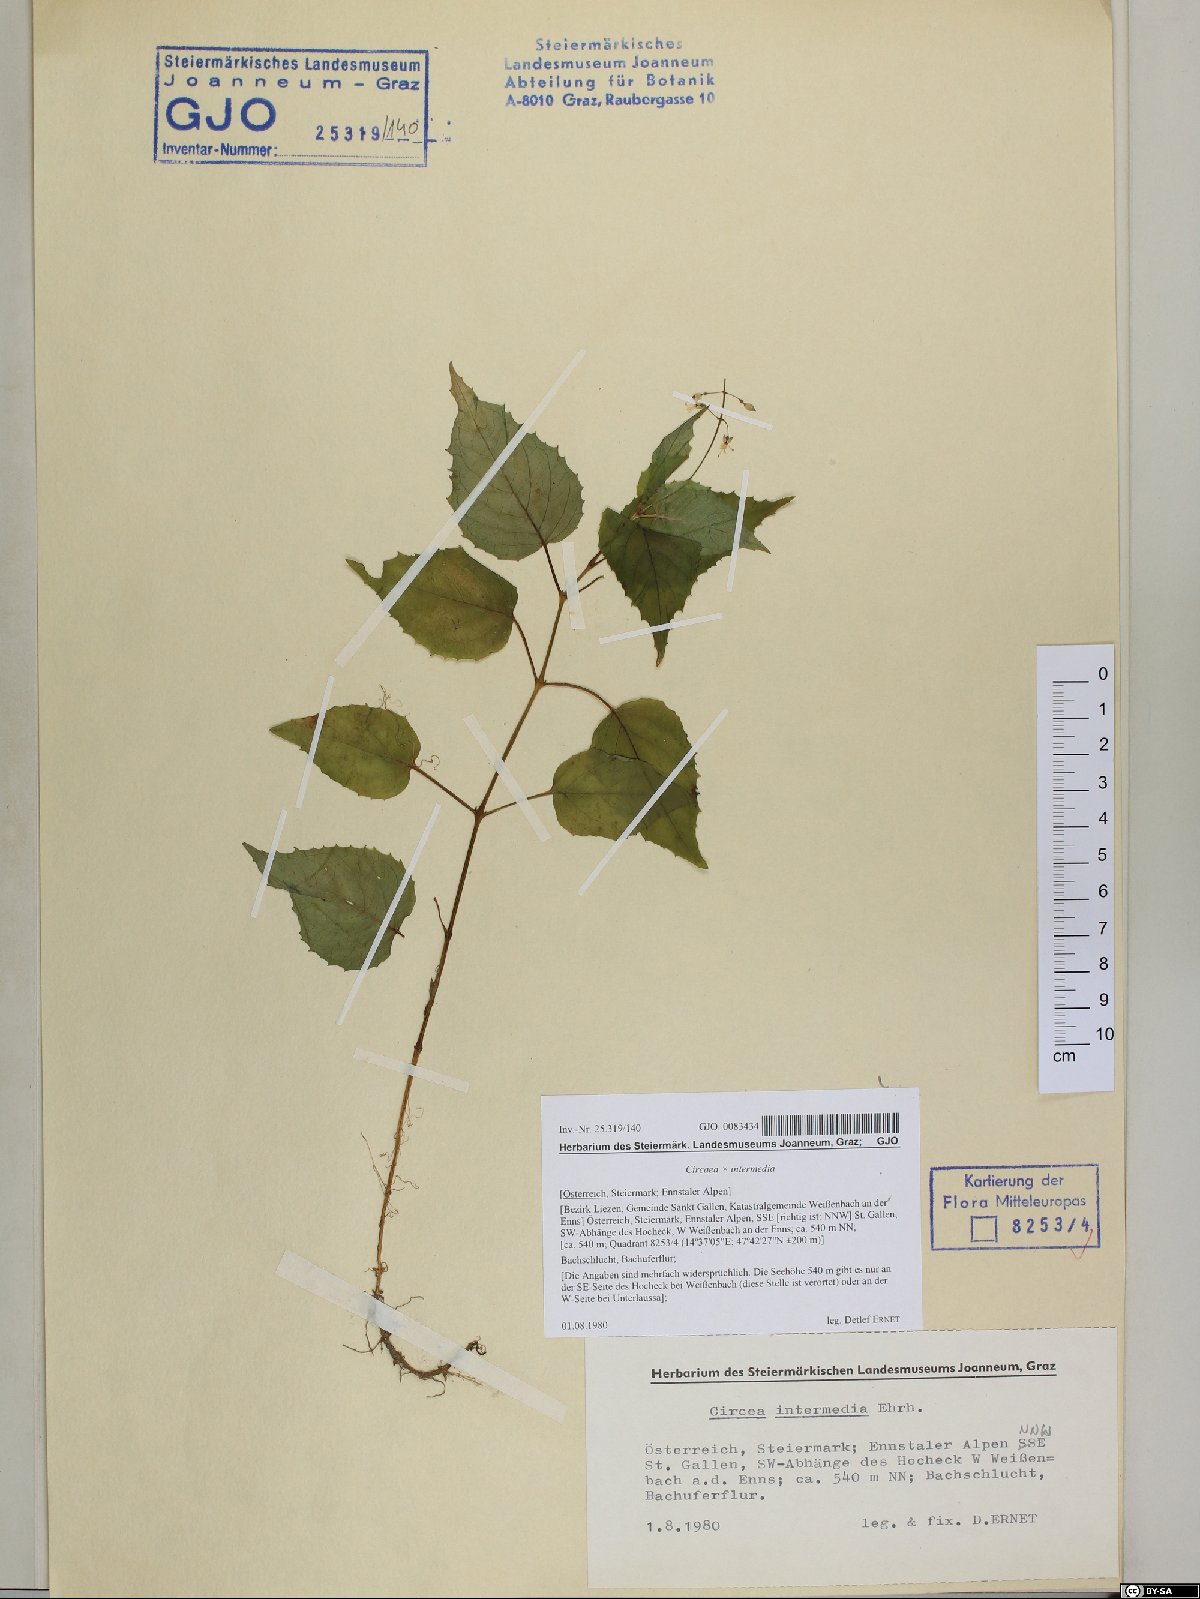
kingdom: Plantae
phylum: Tracheophyta
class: Magnoliopsida
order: Myrtales
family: Onagraceae
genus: Circaea
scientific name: Circaea intermedia
